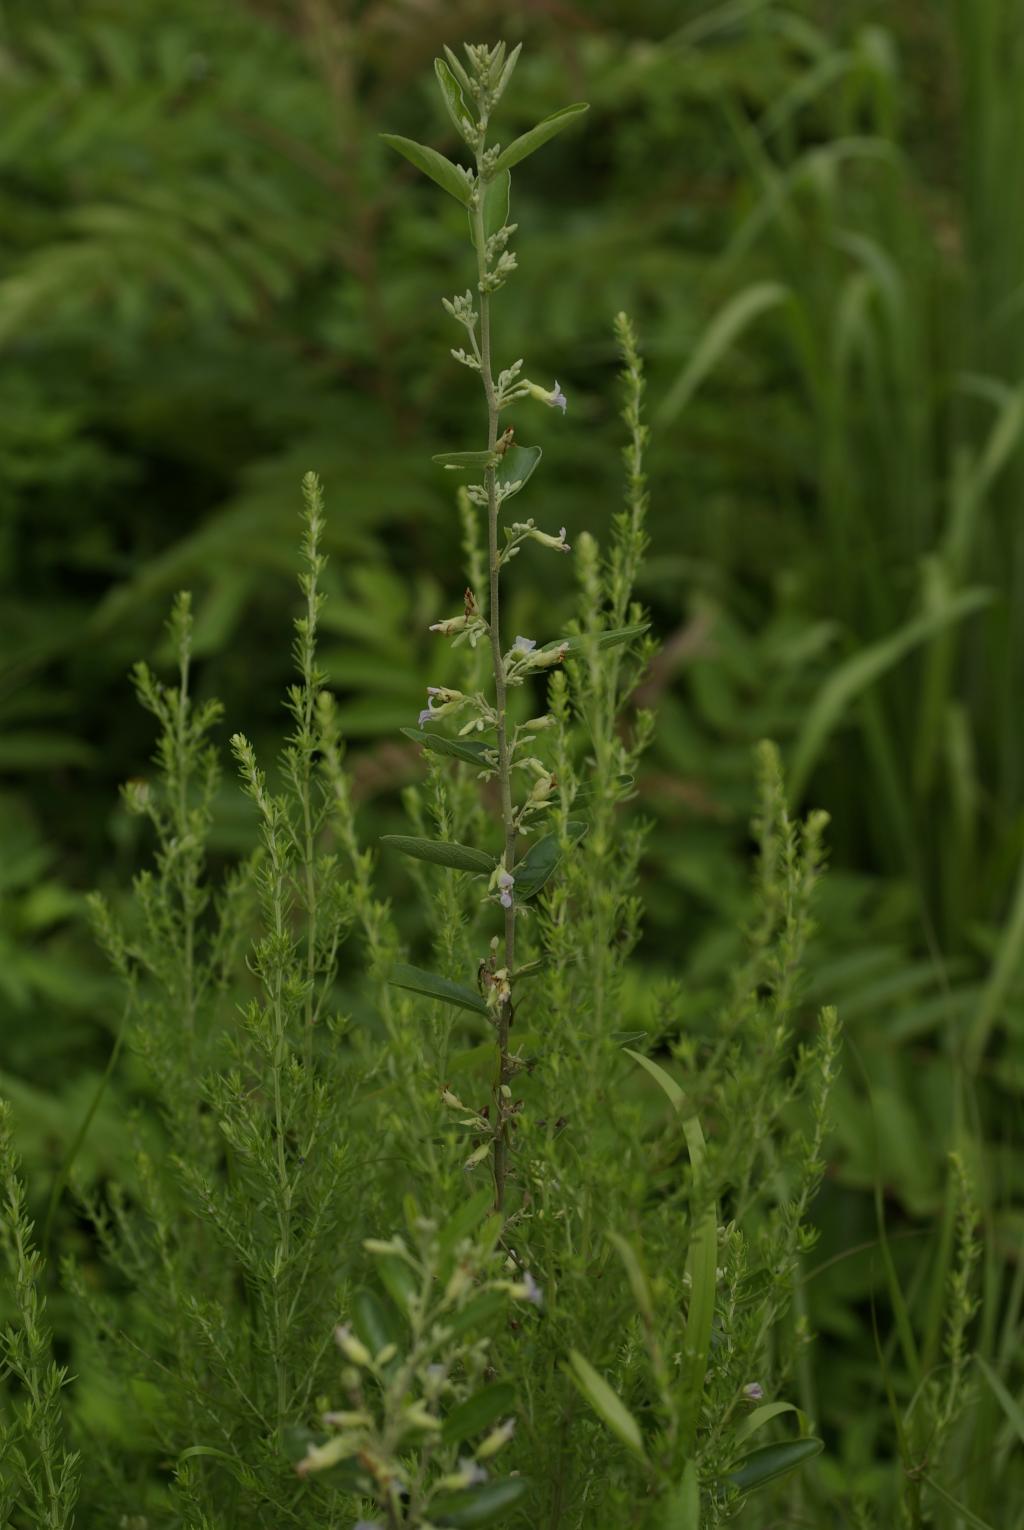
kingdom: Plantae
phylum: Tracheophyta
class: Magnoliopsida
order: Malvales
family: Malvaceae
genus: Helicteres
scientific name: Helicteres augustifolia
